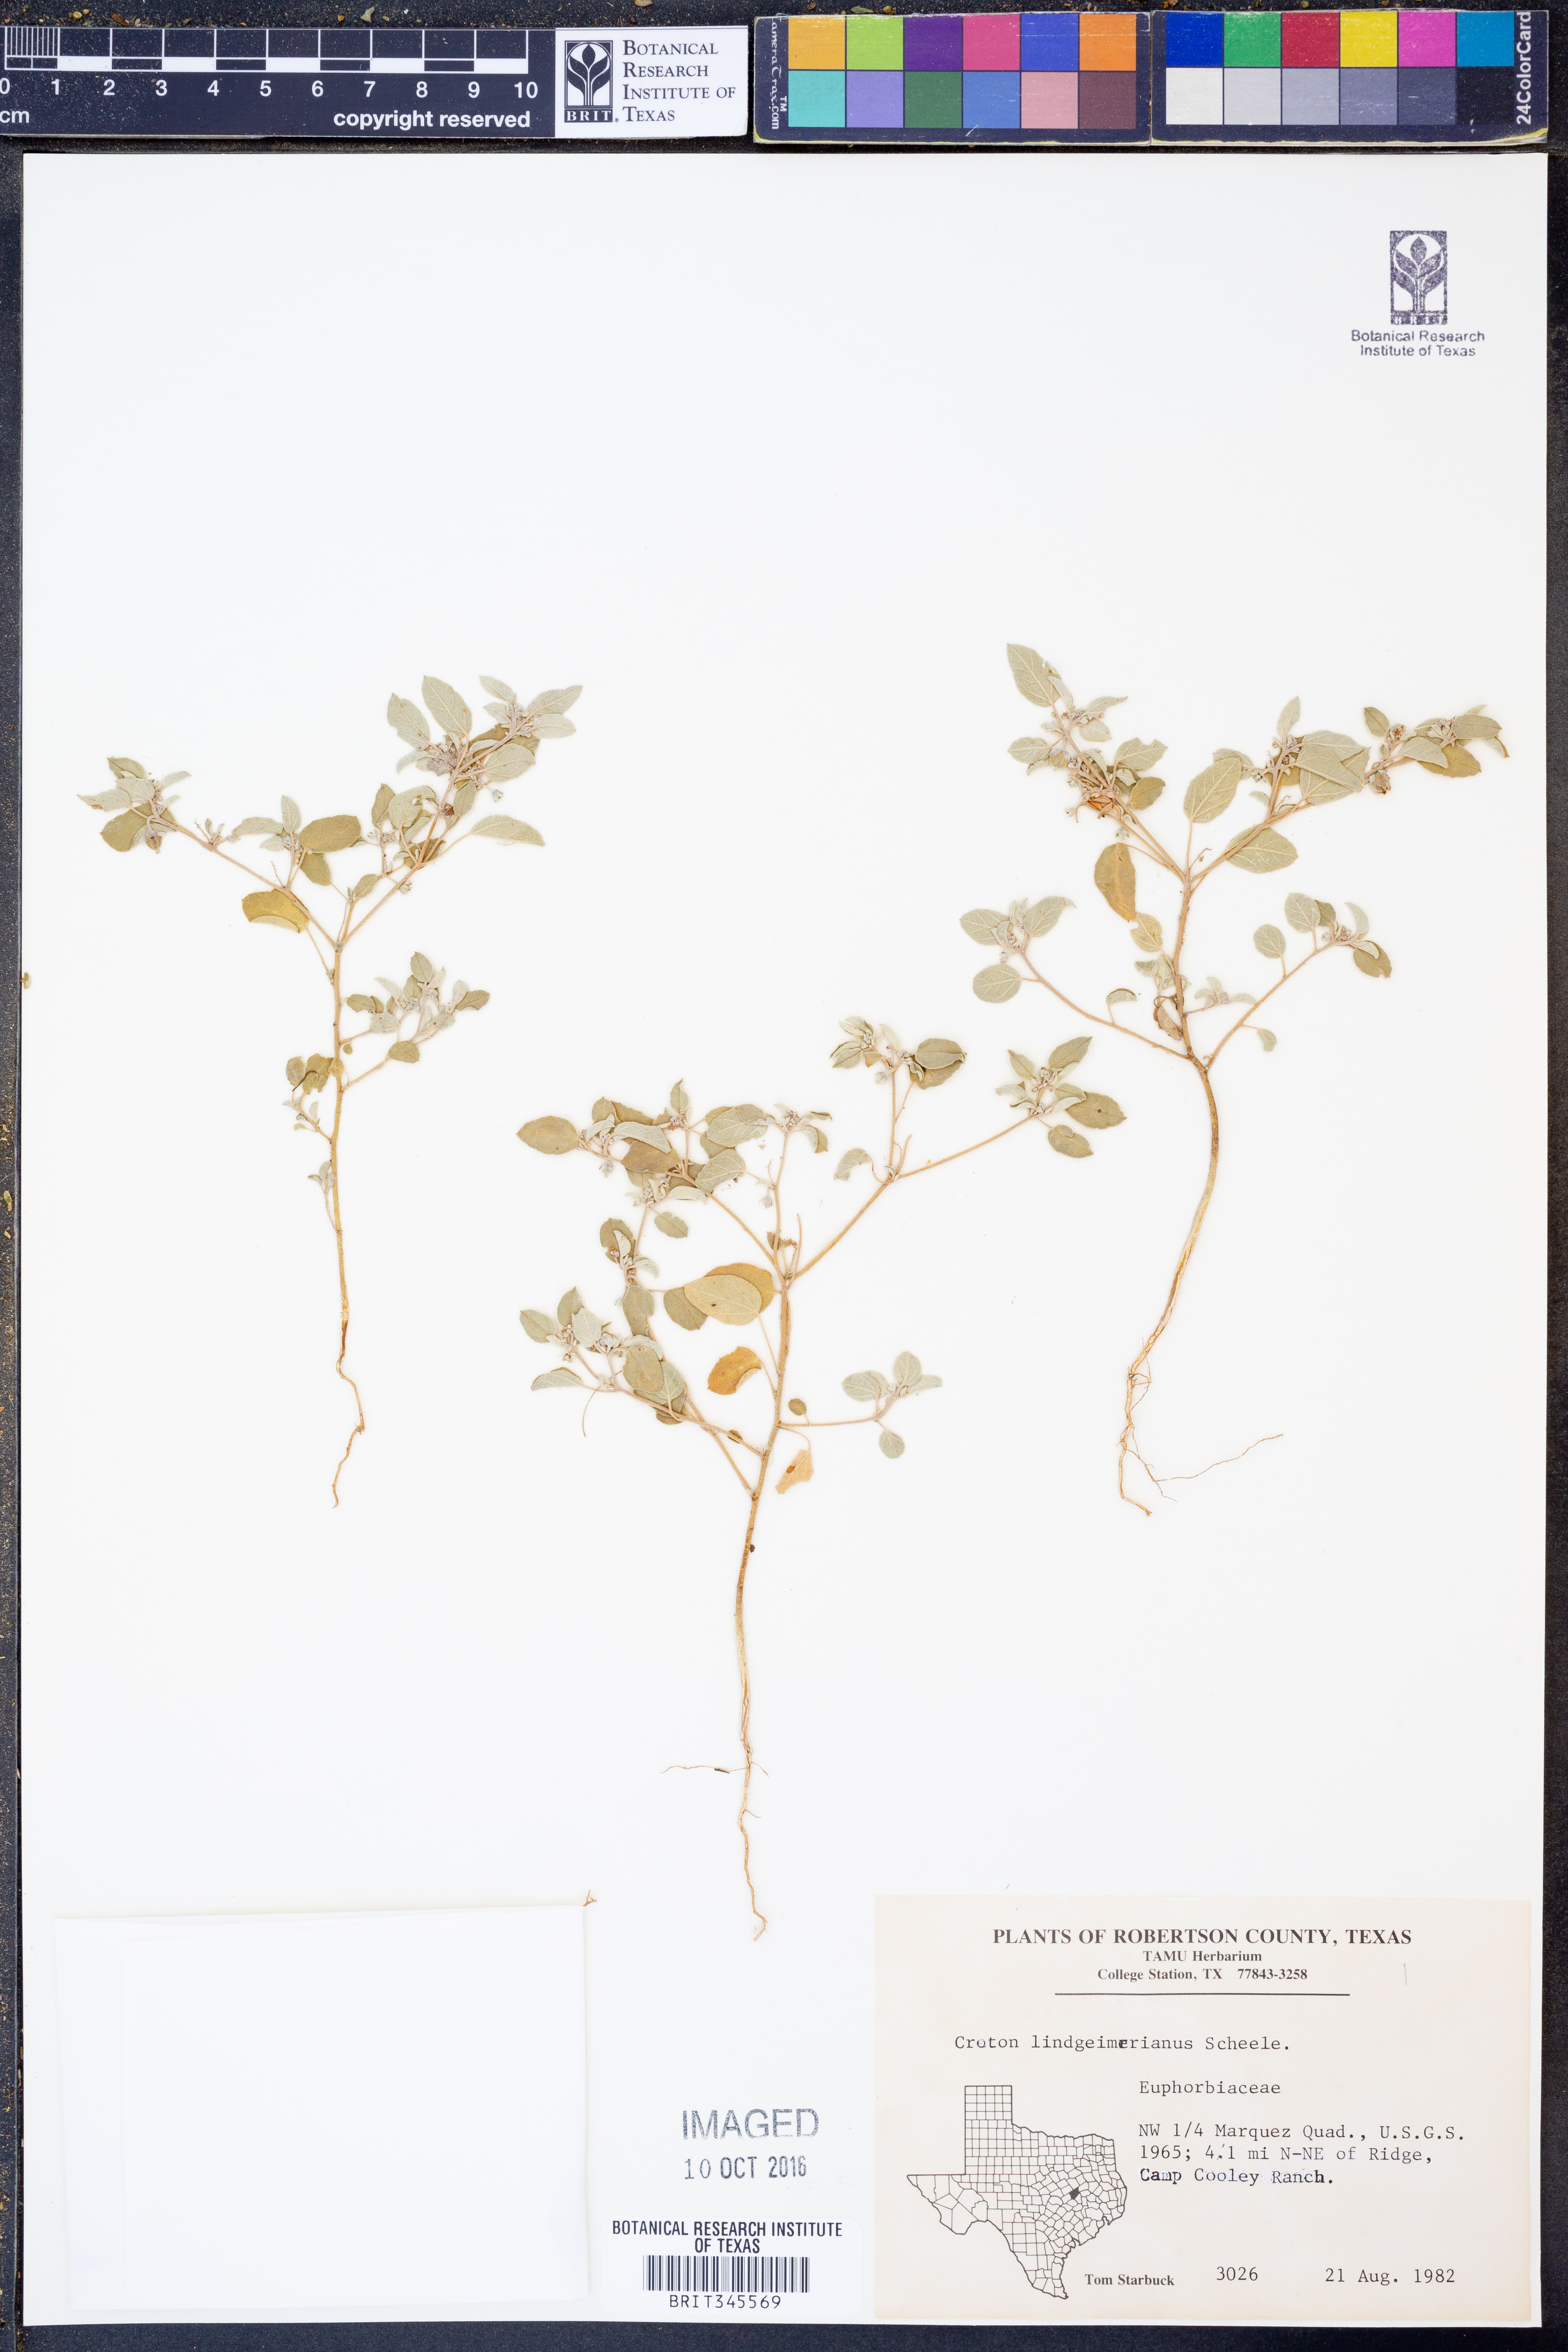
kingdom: Plantae
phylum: Tracheophyta
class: Magnoliopsida
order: Malpighiales
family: Euphorbiaceae
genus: Croton
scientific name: Croton lindheimerianus
